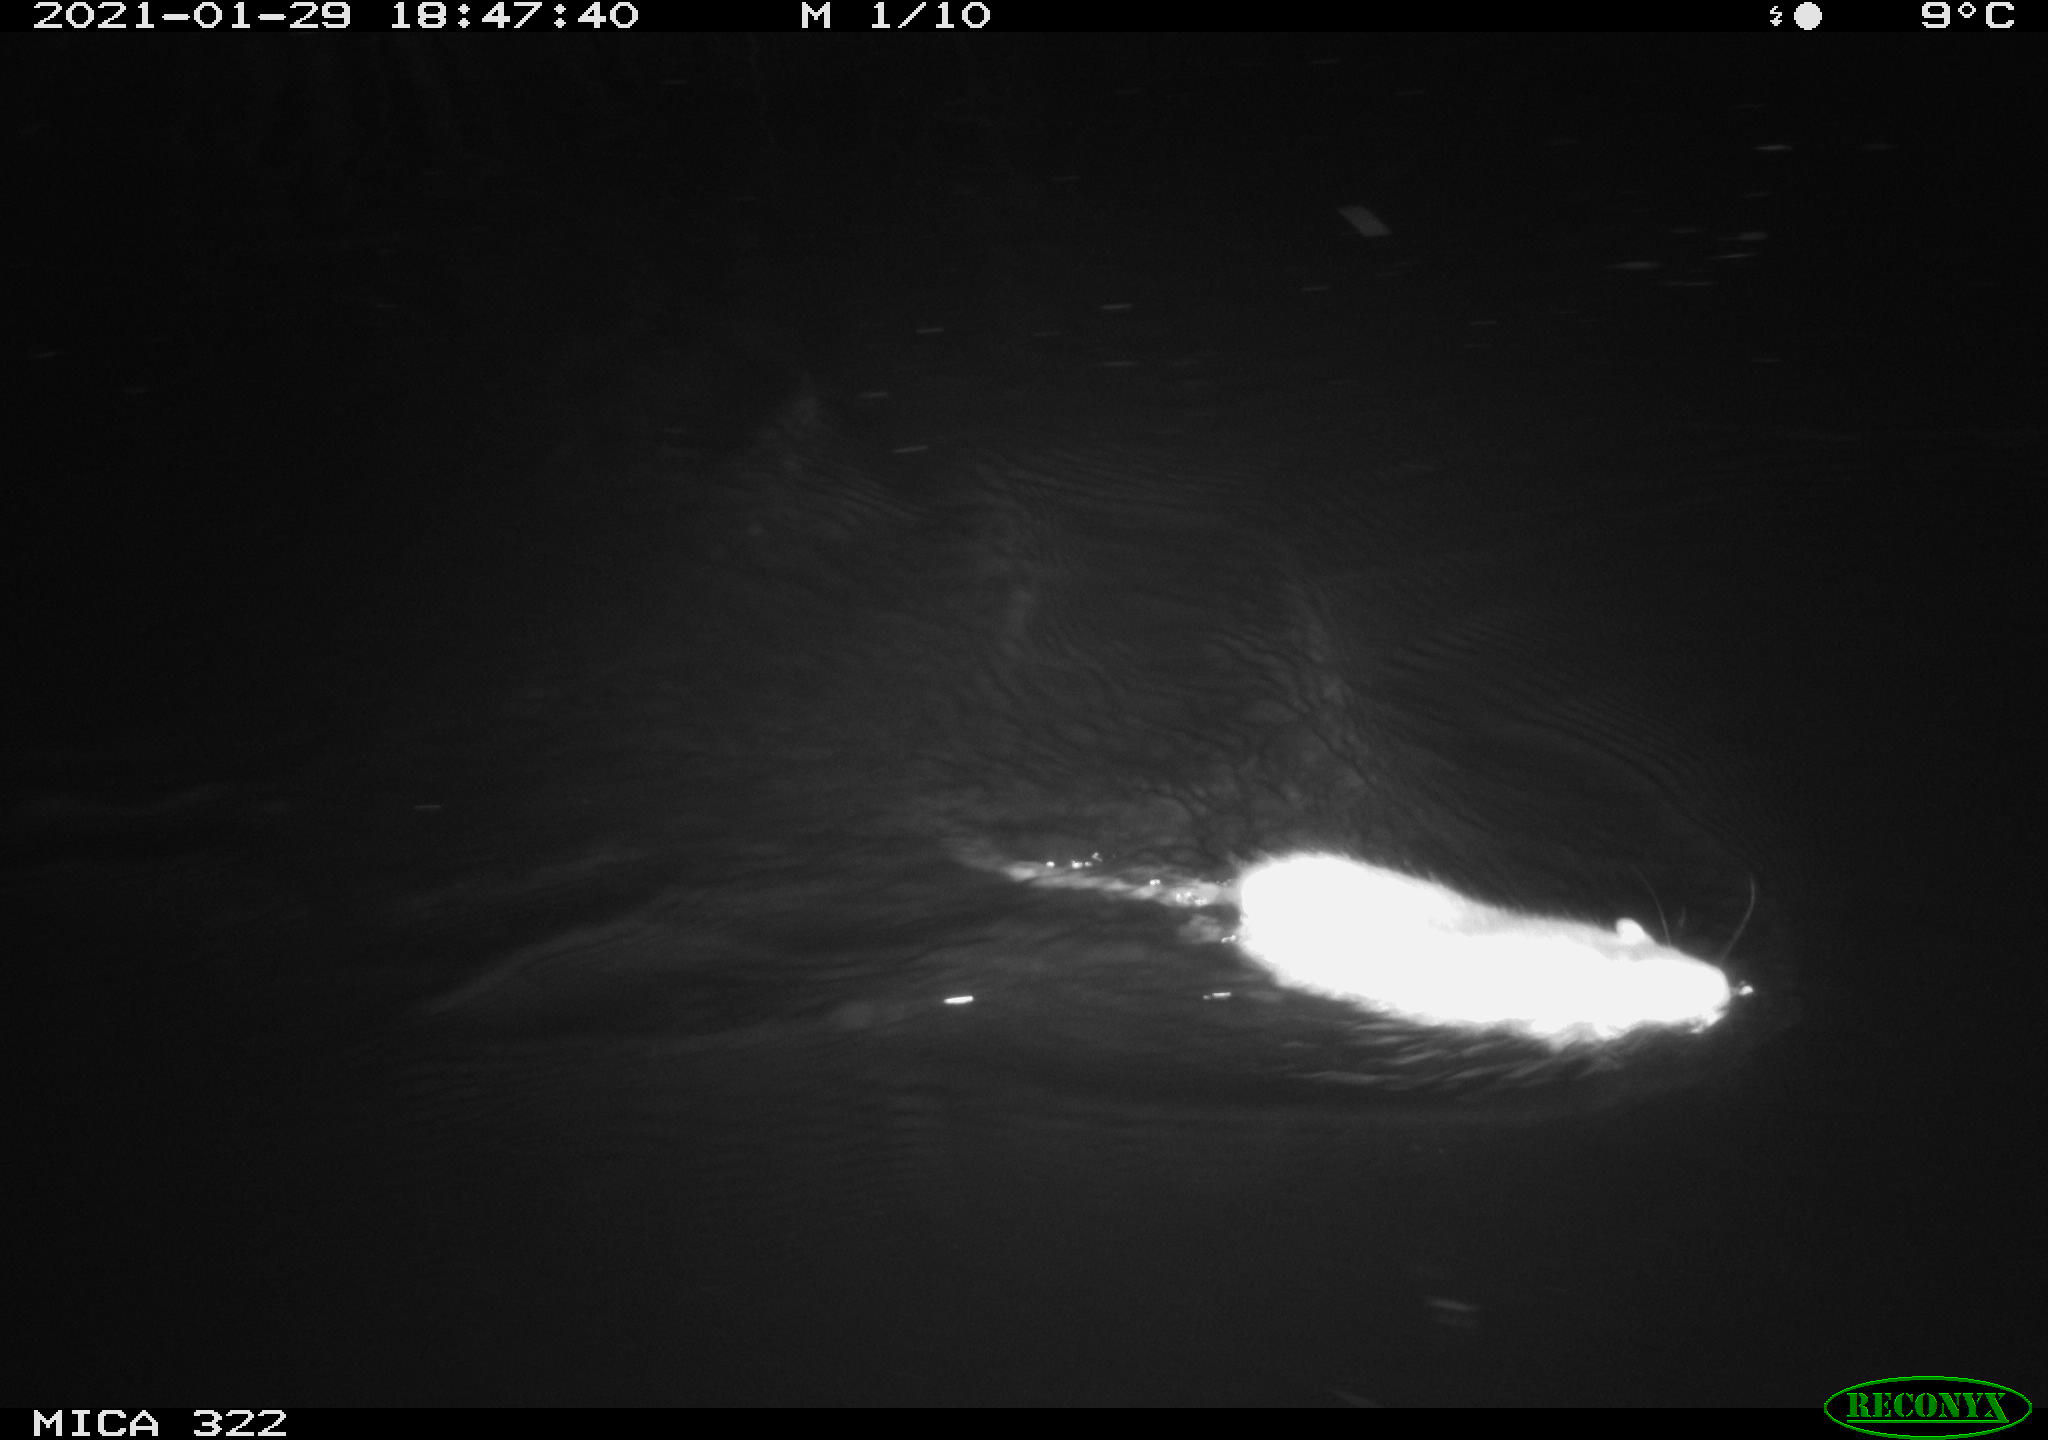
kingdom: Animalia
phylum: Chordata
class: Mammalia
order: Rodentia
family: Muridae
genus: Rattus
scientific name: Rattus norvegicus
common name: Brown rat
